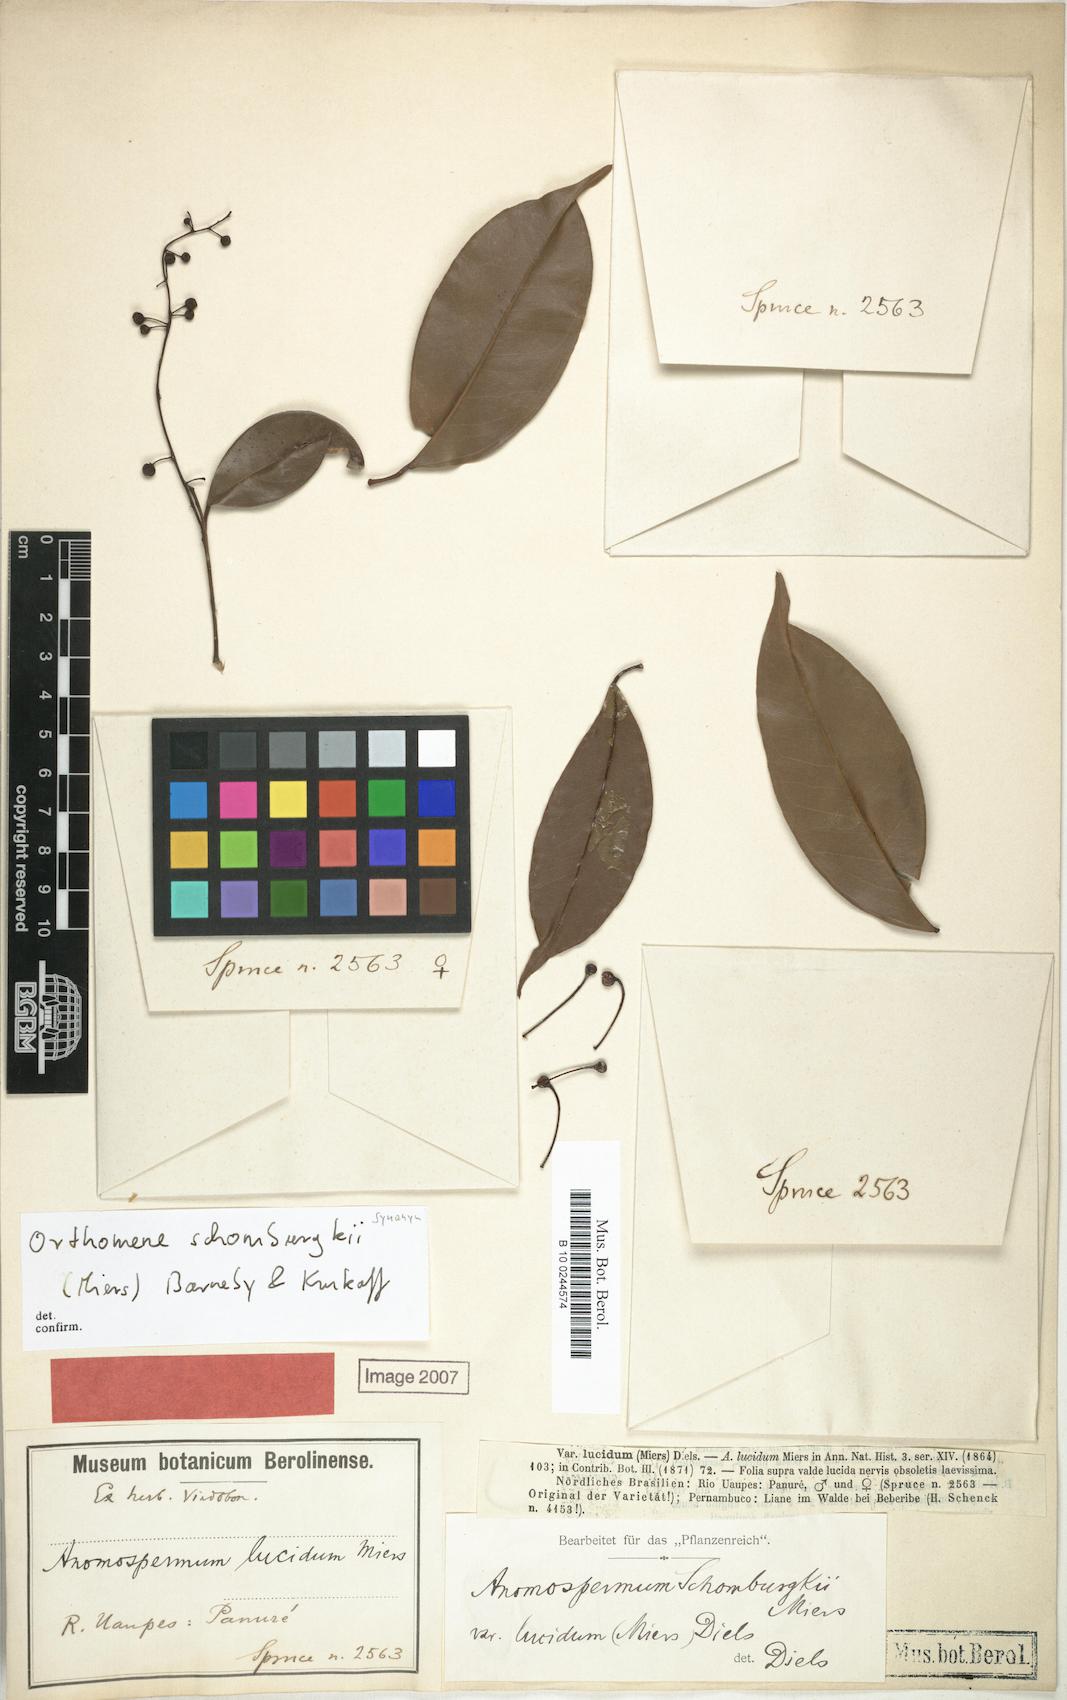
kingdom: Plantae
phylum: Tracheophyta
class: Magnoliopsida
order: Ranunculales
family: Menispermaceae
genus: Orthomene
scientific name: Orthomene schomburgkii
